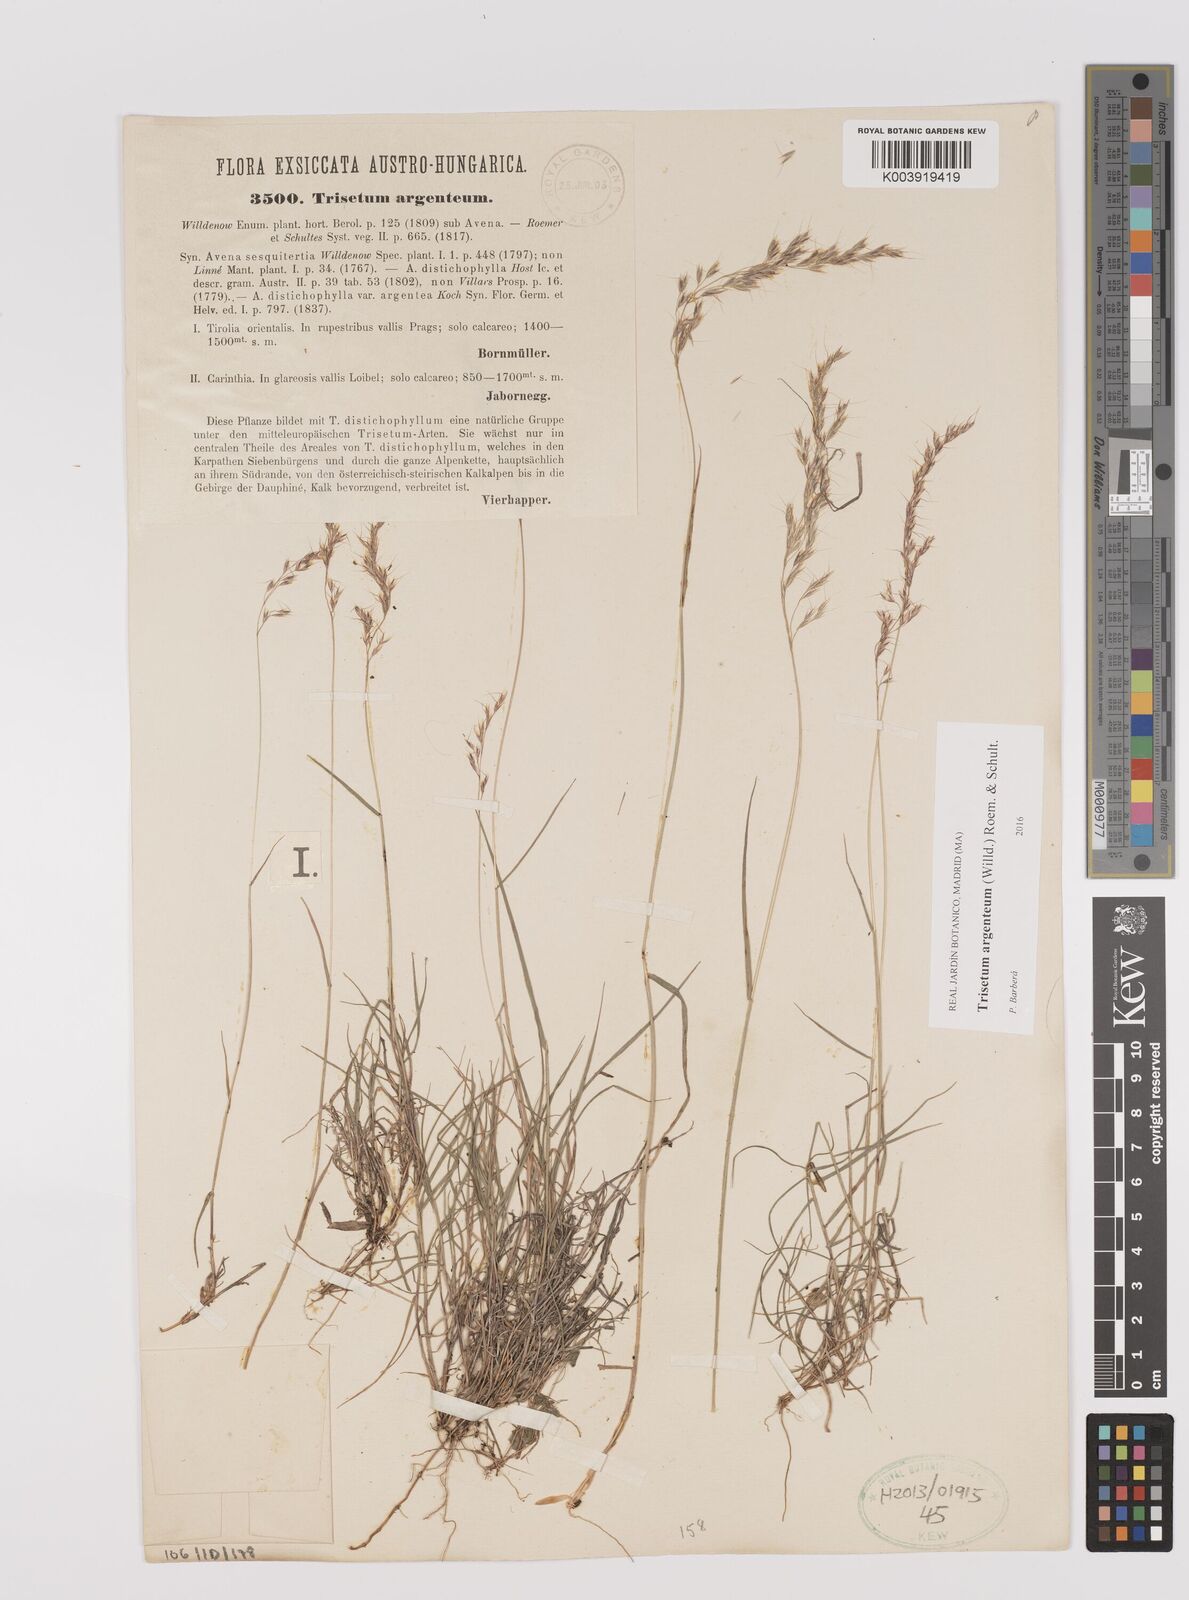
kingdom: Plantae
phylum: Tracheophyta
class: Liliopsida
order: Poales
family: Poaceae
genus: Trisetum
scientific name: Trisetum argenteum
